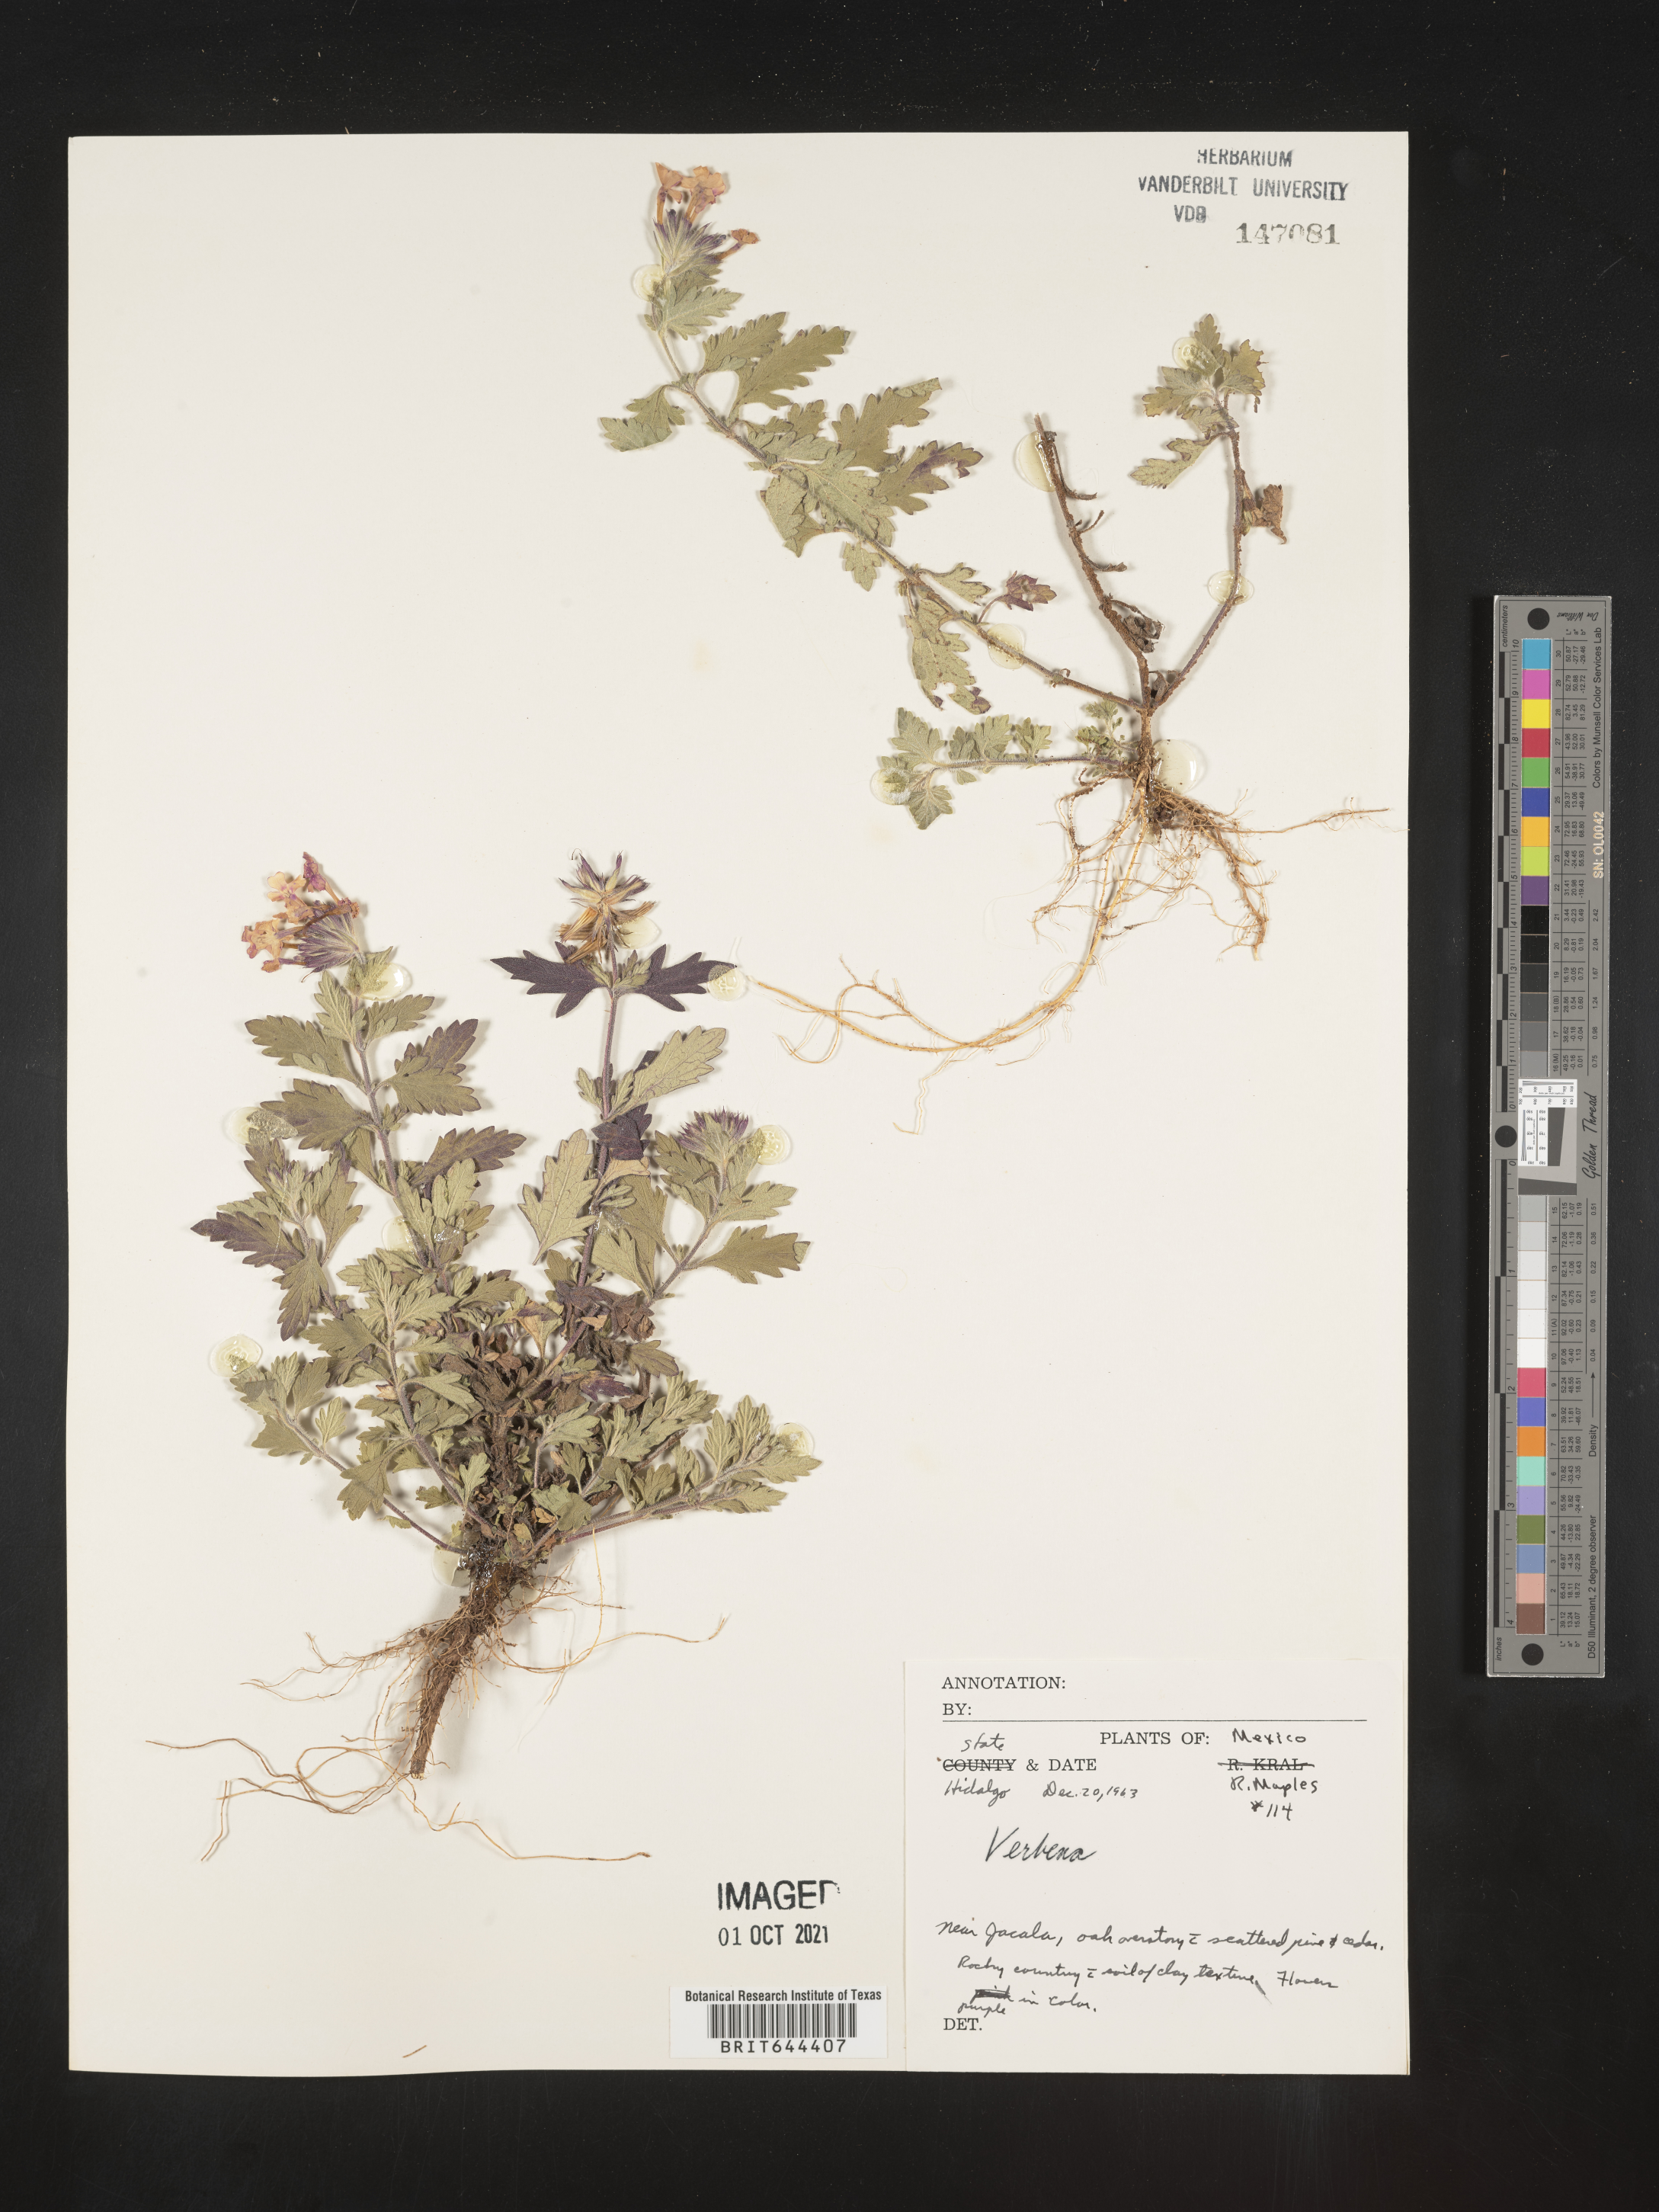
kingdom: Plantae
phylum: Tracheophyta
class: Magnoliopsida
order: Lamiales
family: Verbenaceae
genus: Verbena
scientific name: Verbena
